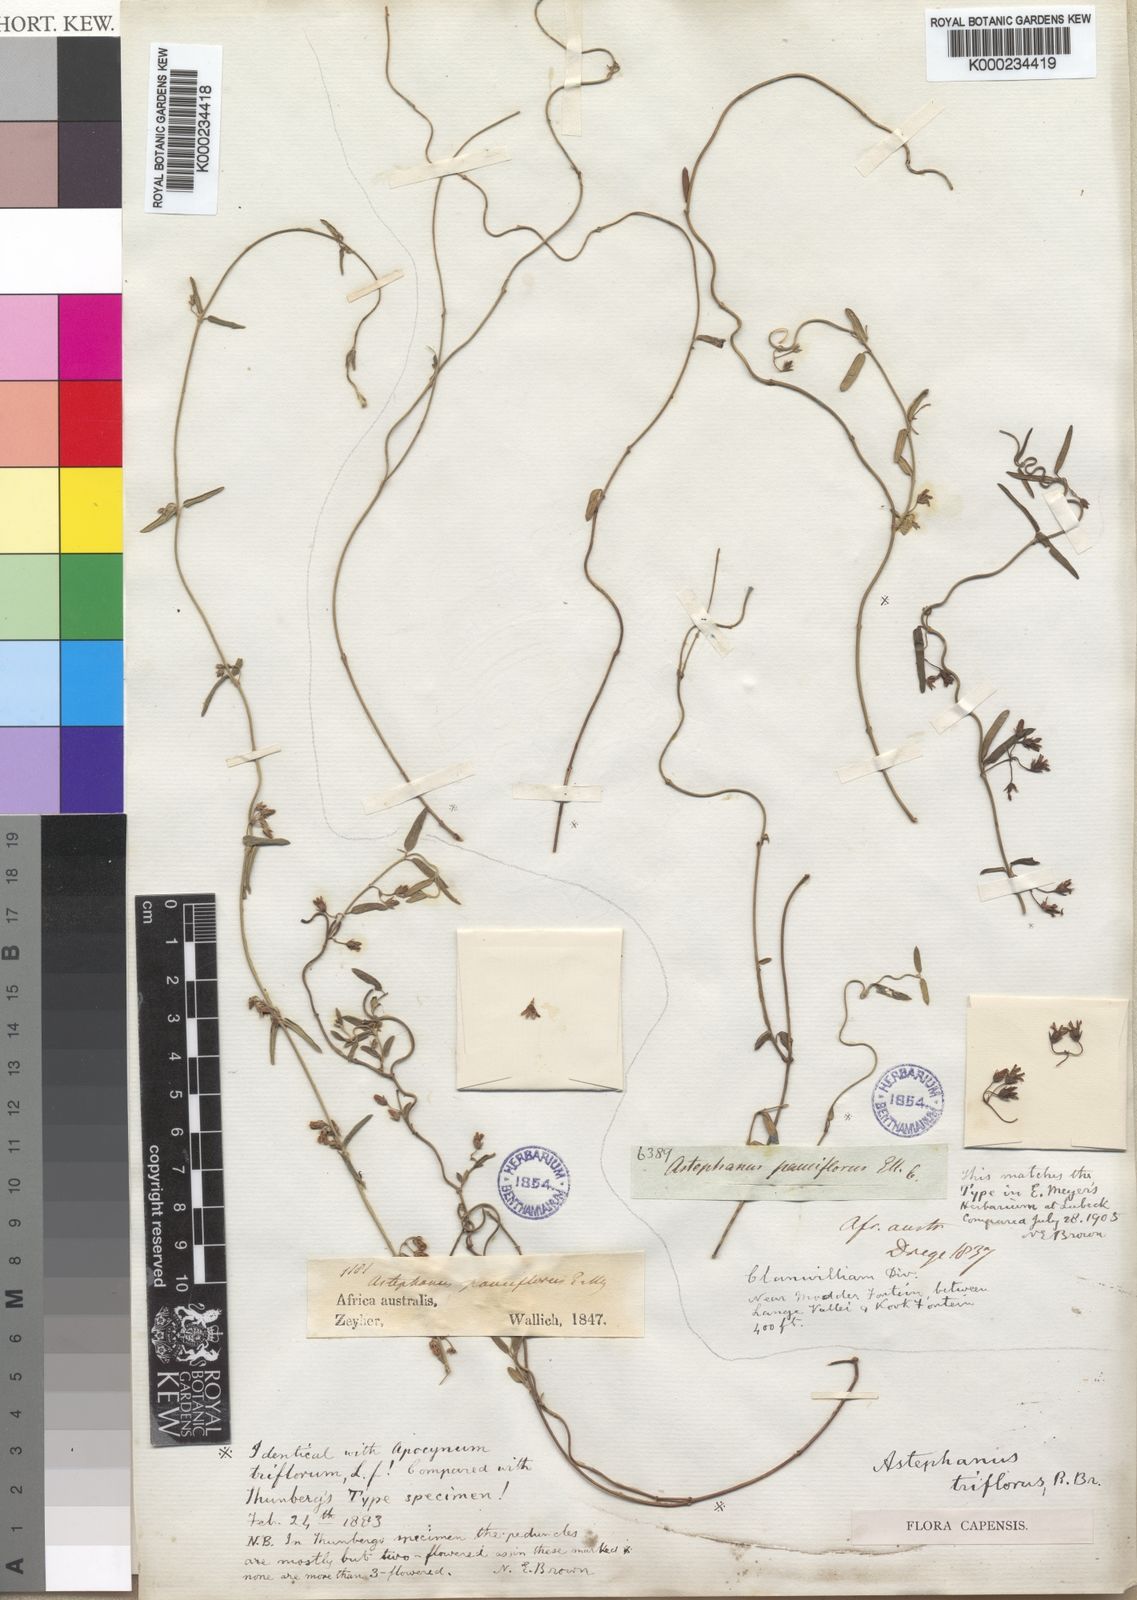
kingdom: Plantae
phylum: Tracheophyta
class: Magnoliopsida
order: Gentianales
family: Apocynaceae
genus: Astephanus
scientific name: Astephanus
